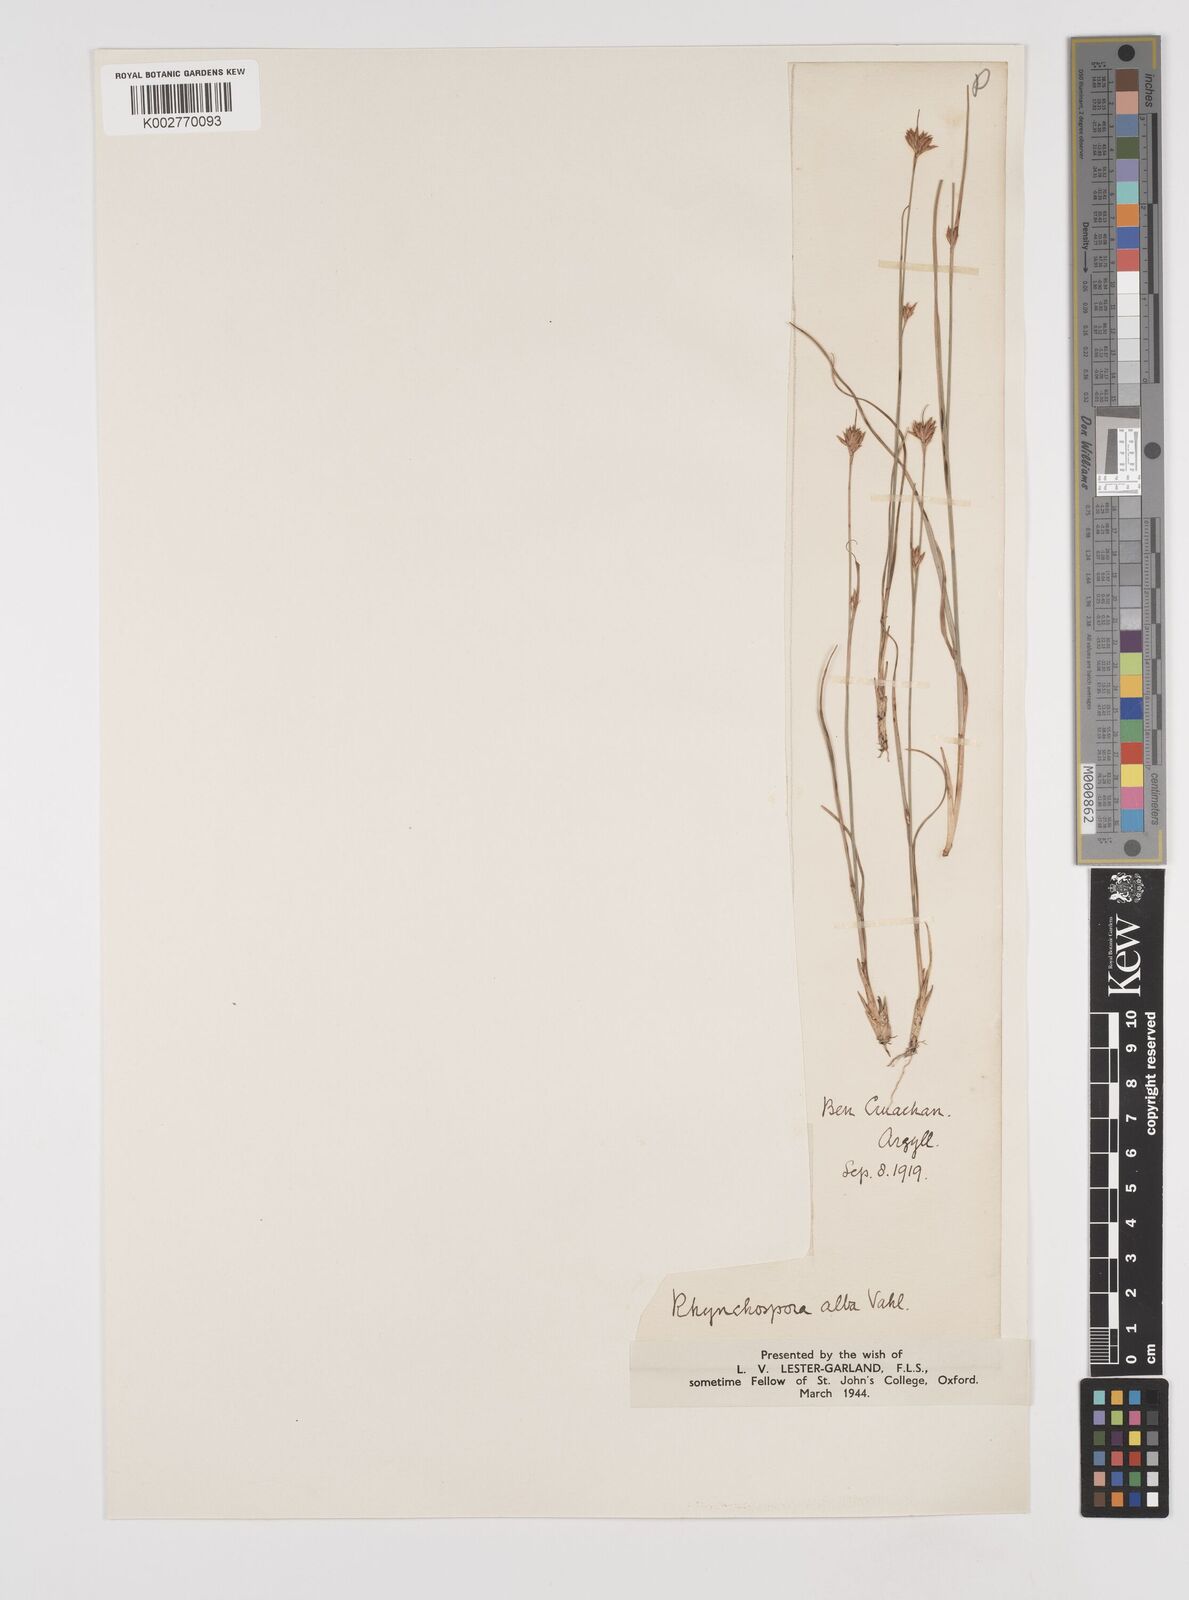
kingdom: Plantae
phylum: Tracheophyta
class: Liliopsida
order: Poales
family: Cyperaceae
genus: Rhynchospora
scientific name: Rhynchospora alba
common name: White beak-sedge
